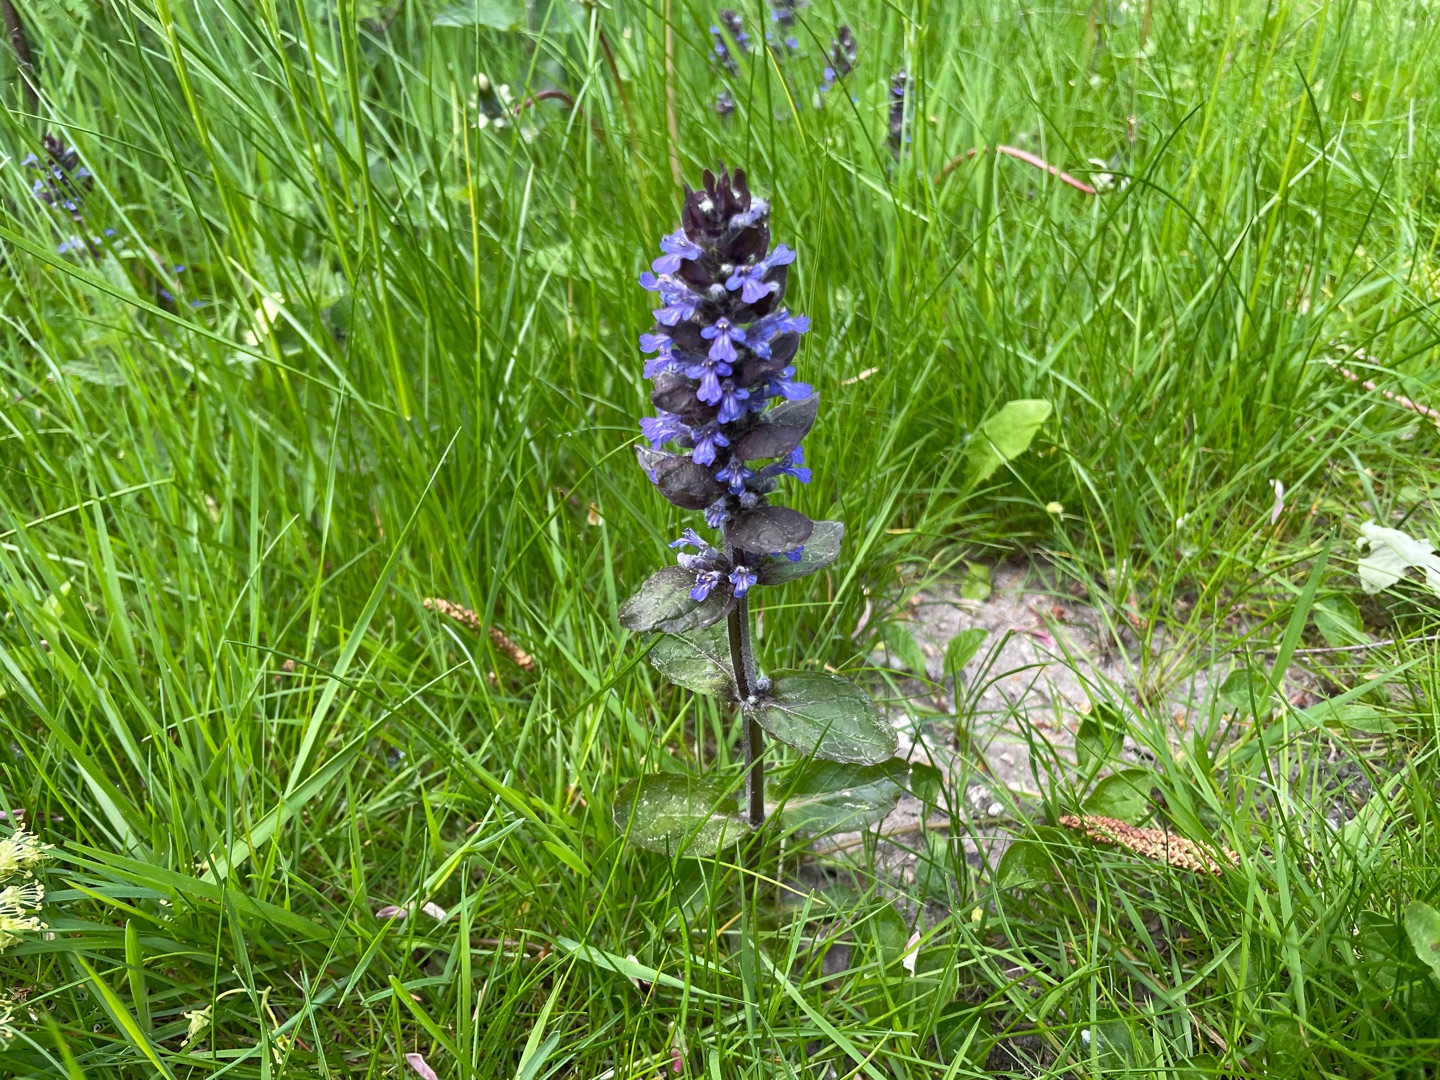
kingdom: Plantae
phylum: Tracheophyta
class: Magnoliopsida
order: Lamiales
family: Lamiaceae
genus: Ajuga
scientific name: Ajuga reptans
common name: Krybende læbeløs
